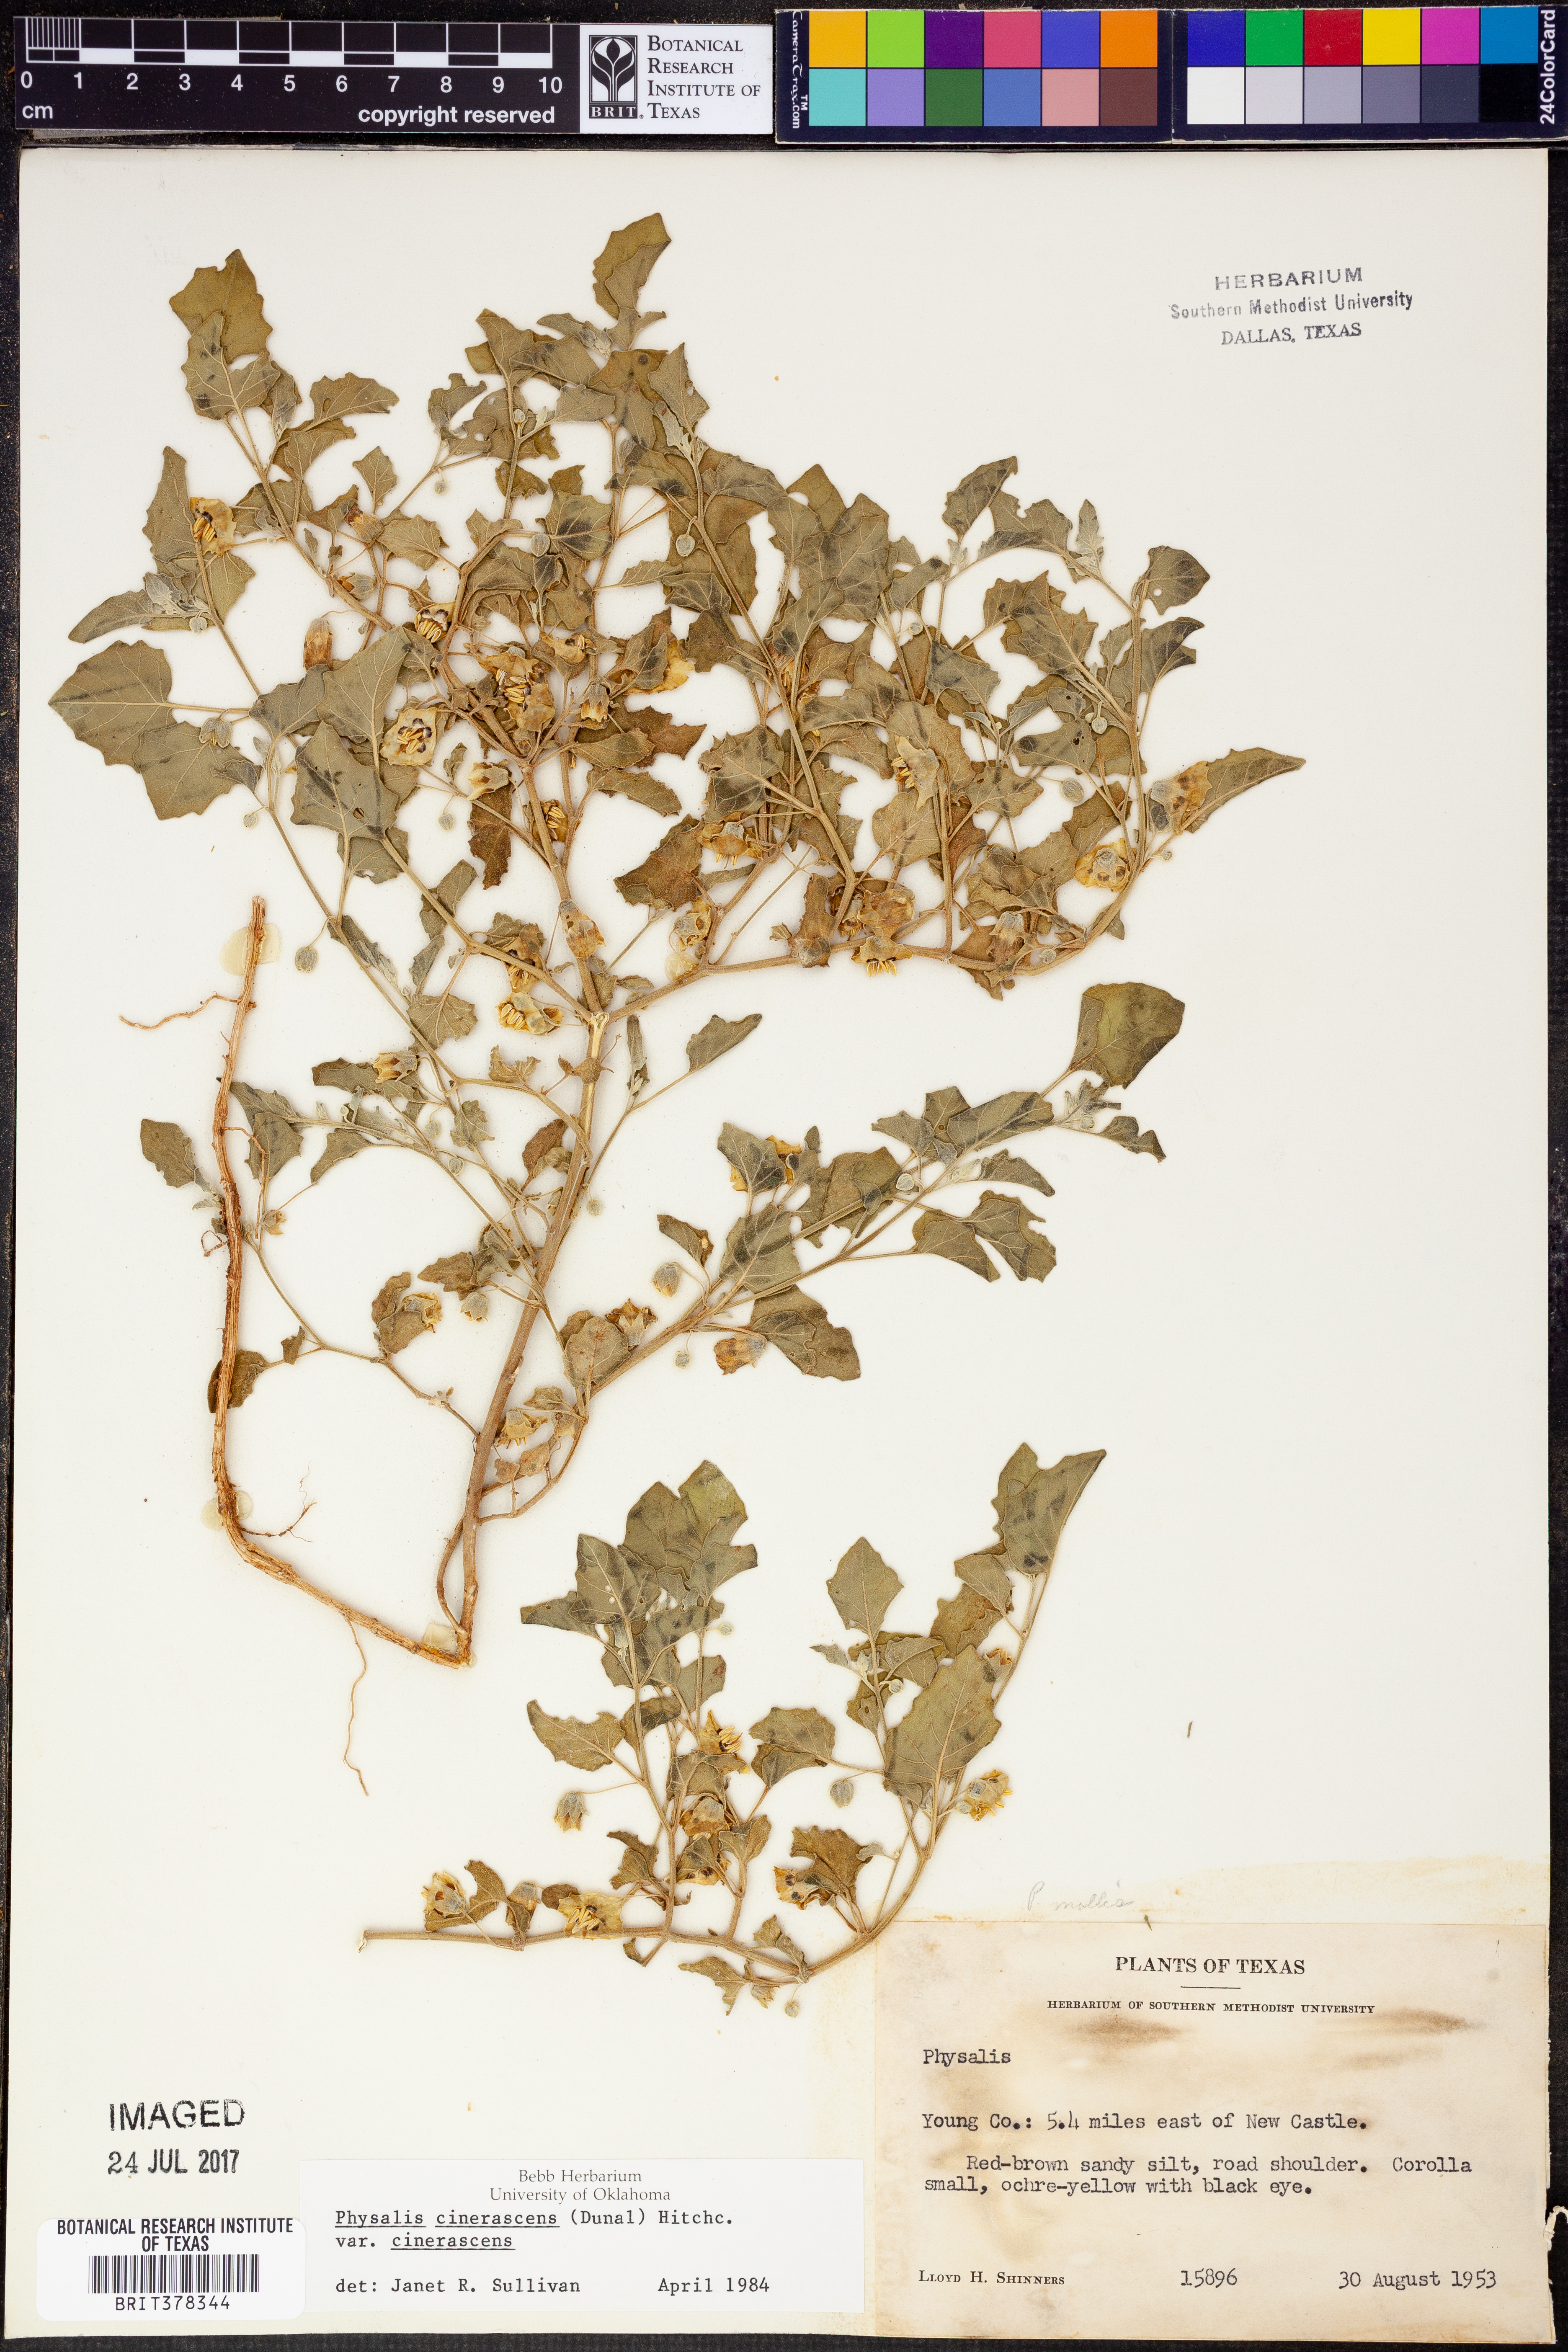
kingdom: Plantae
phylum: Tracheophyta
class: Magnoliopsida
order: Solanales
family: Solanaceae
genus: Physalis
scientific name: Physalis cinerascens
